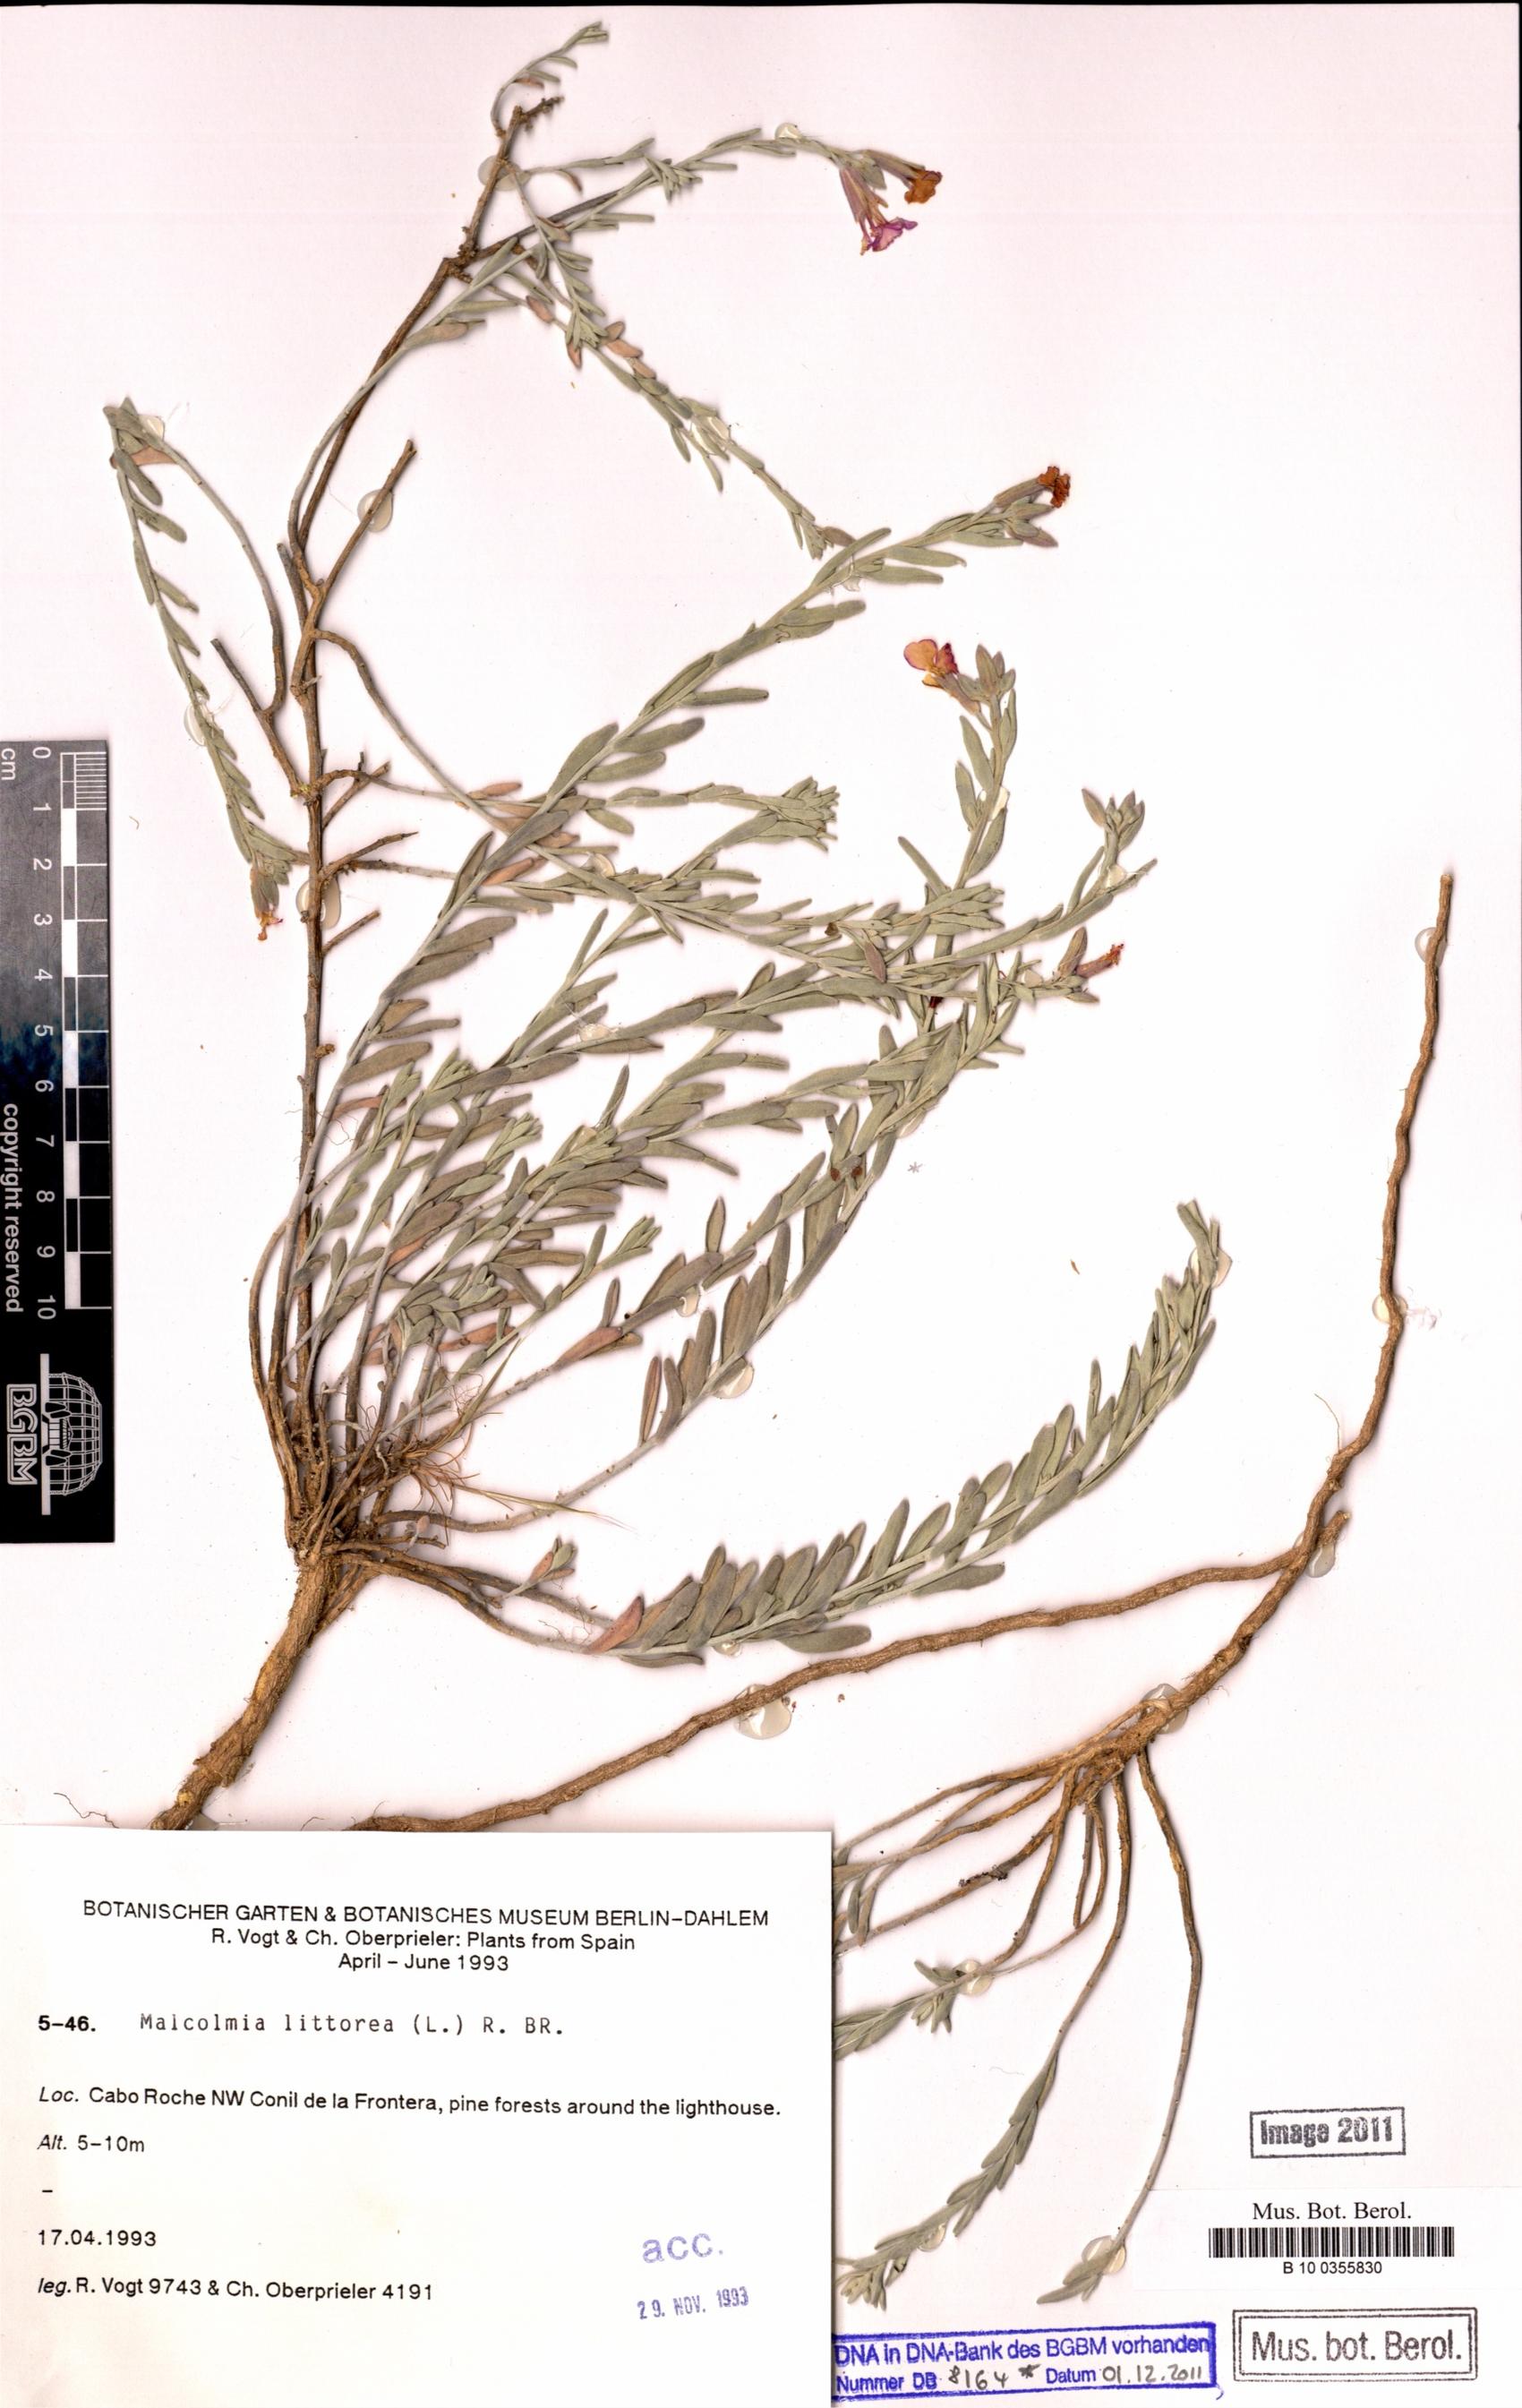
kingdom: Plantae
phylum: Tracheophyta
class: Magnoliopsida
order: Brassicales
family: Brassicaceae
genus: Marcuskochia
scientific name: Marcuskochia littorea
